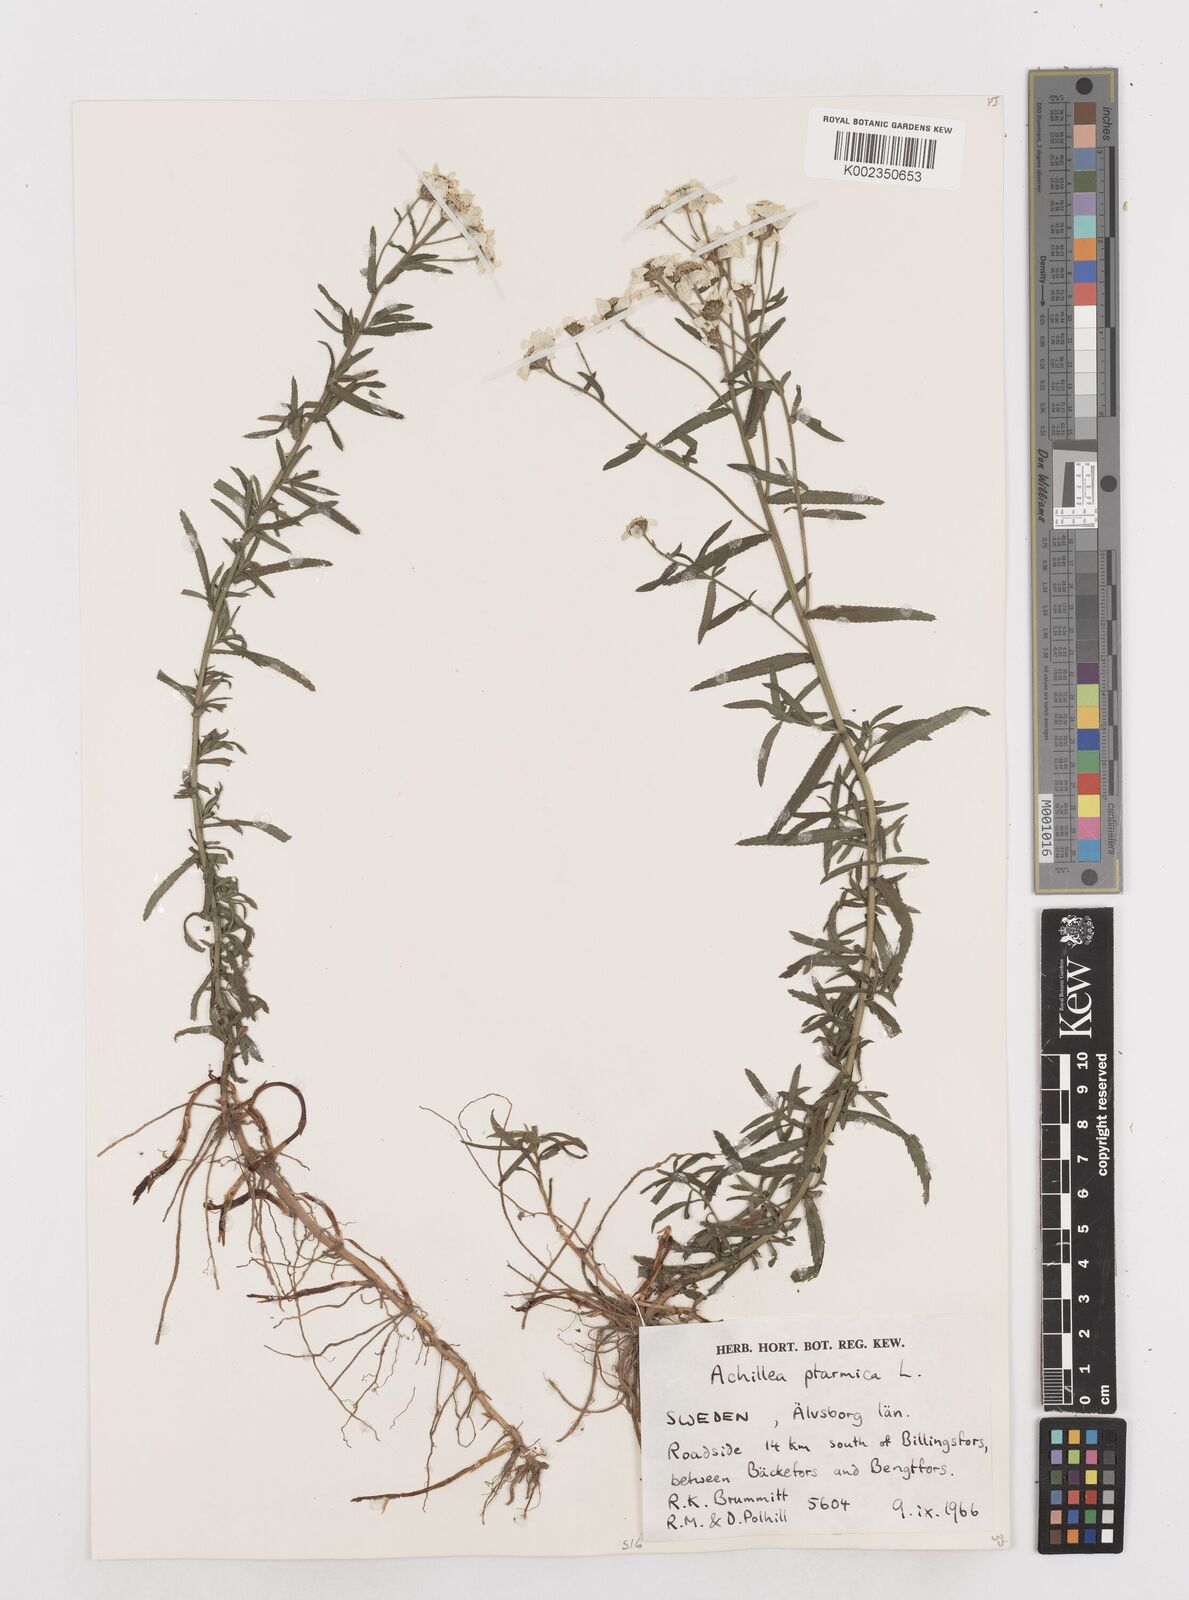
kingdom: Plantae
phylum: Tracheophyta
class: Magnoliopsida
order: Asterales
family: Asteraceae
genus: Achillea
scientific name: Achillea ptarmica
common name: Sneezeweed
